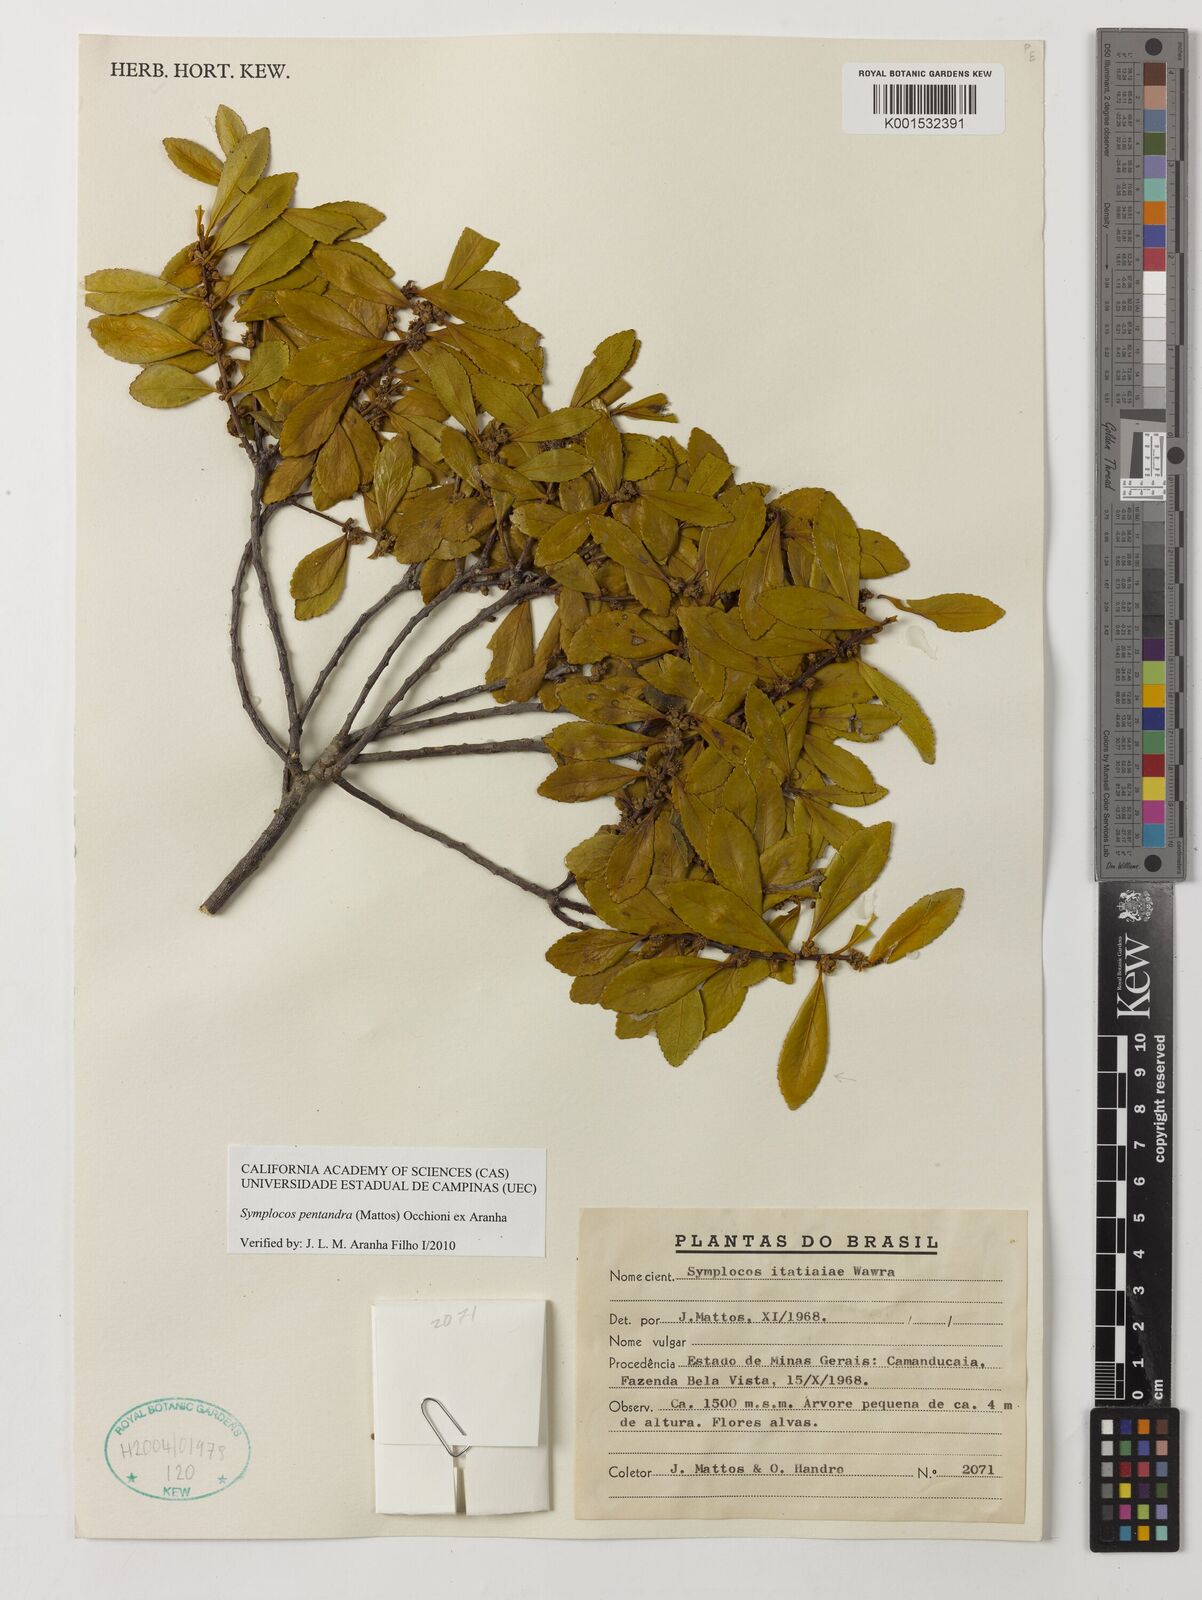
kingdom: Plantae
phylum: Tracheophyta
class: Magnoliopsida
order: Ericales
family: Symplocaceae
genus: Symplocos
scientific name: Symplocos pentandra
